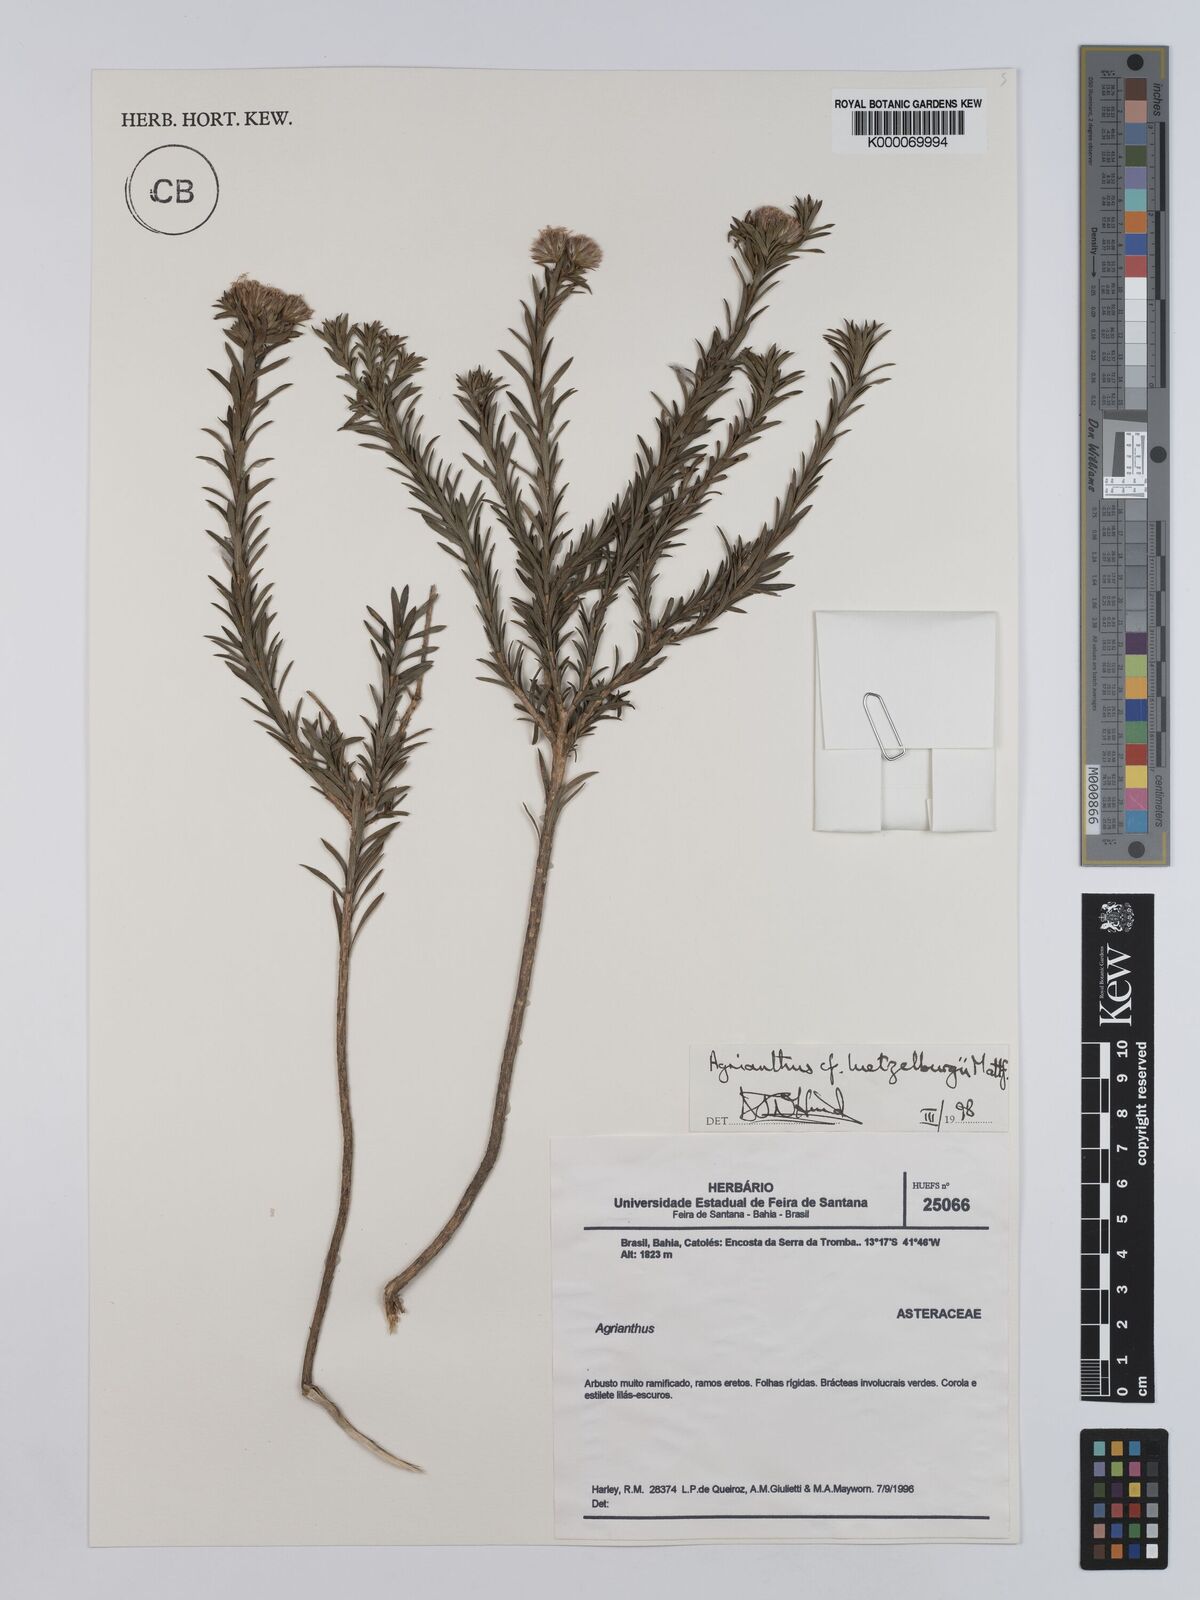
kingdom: Plantae
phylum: Tracheophyta
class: Magnoliopsida
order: Asterales
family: Asteraceae
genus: Agrianthus
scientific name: Agrianthus
